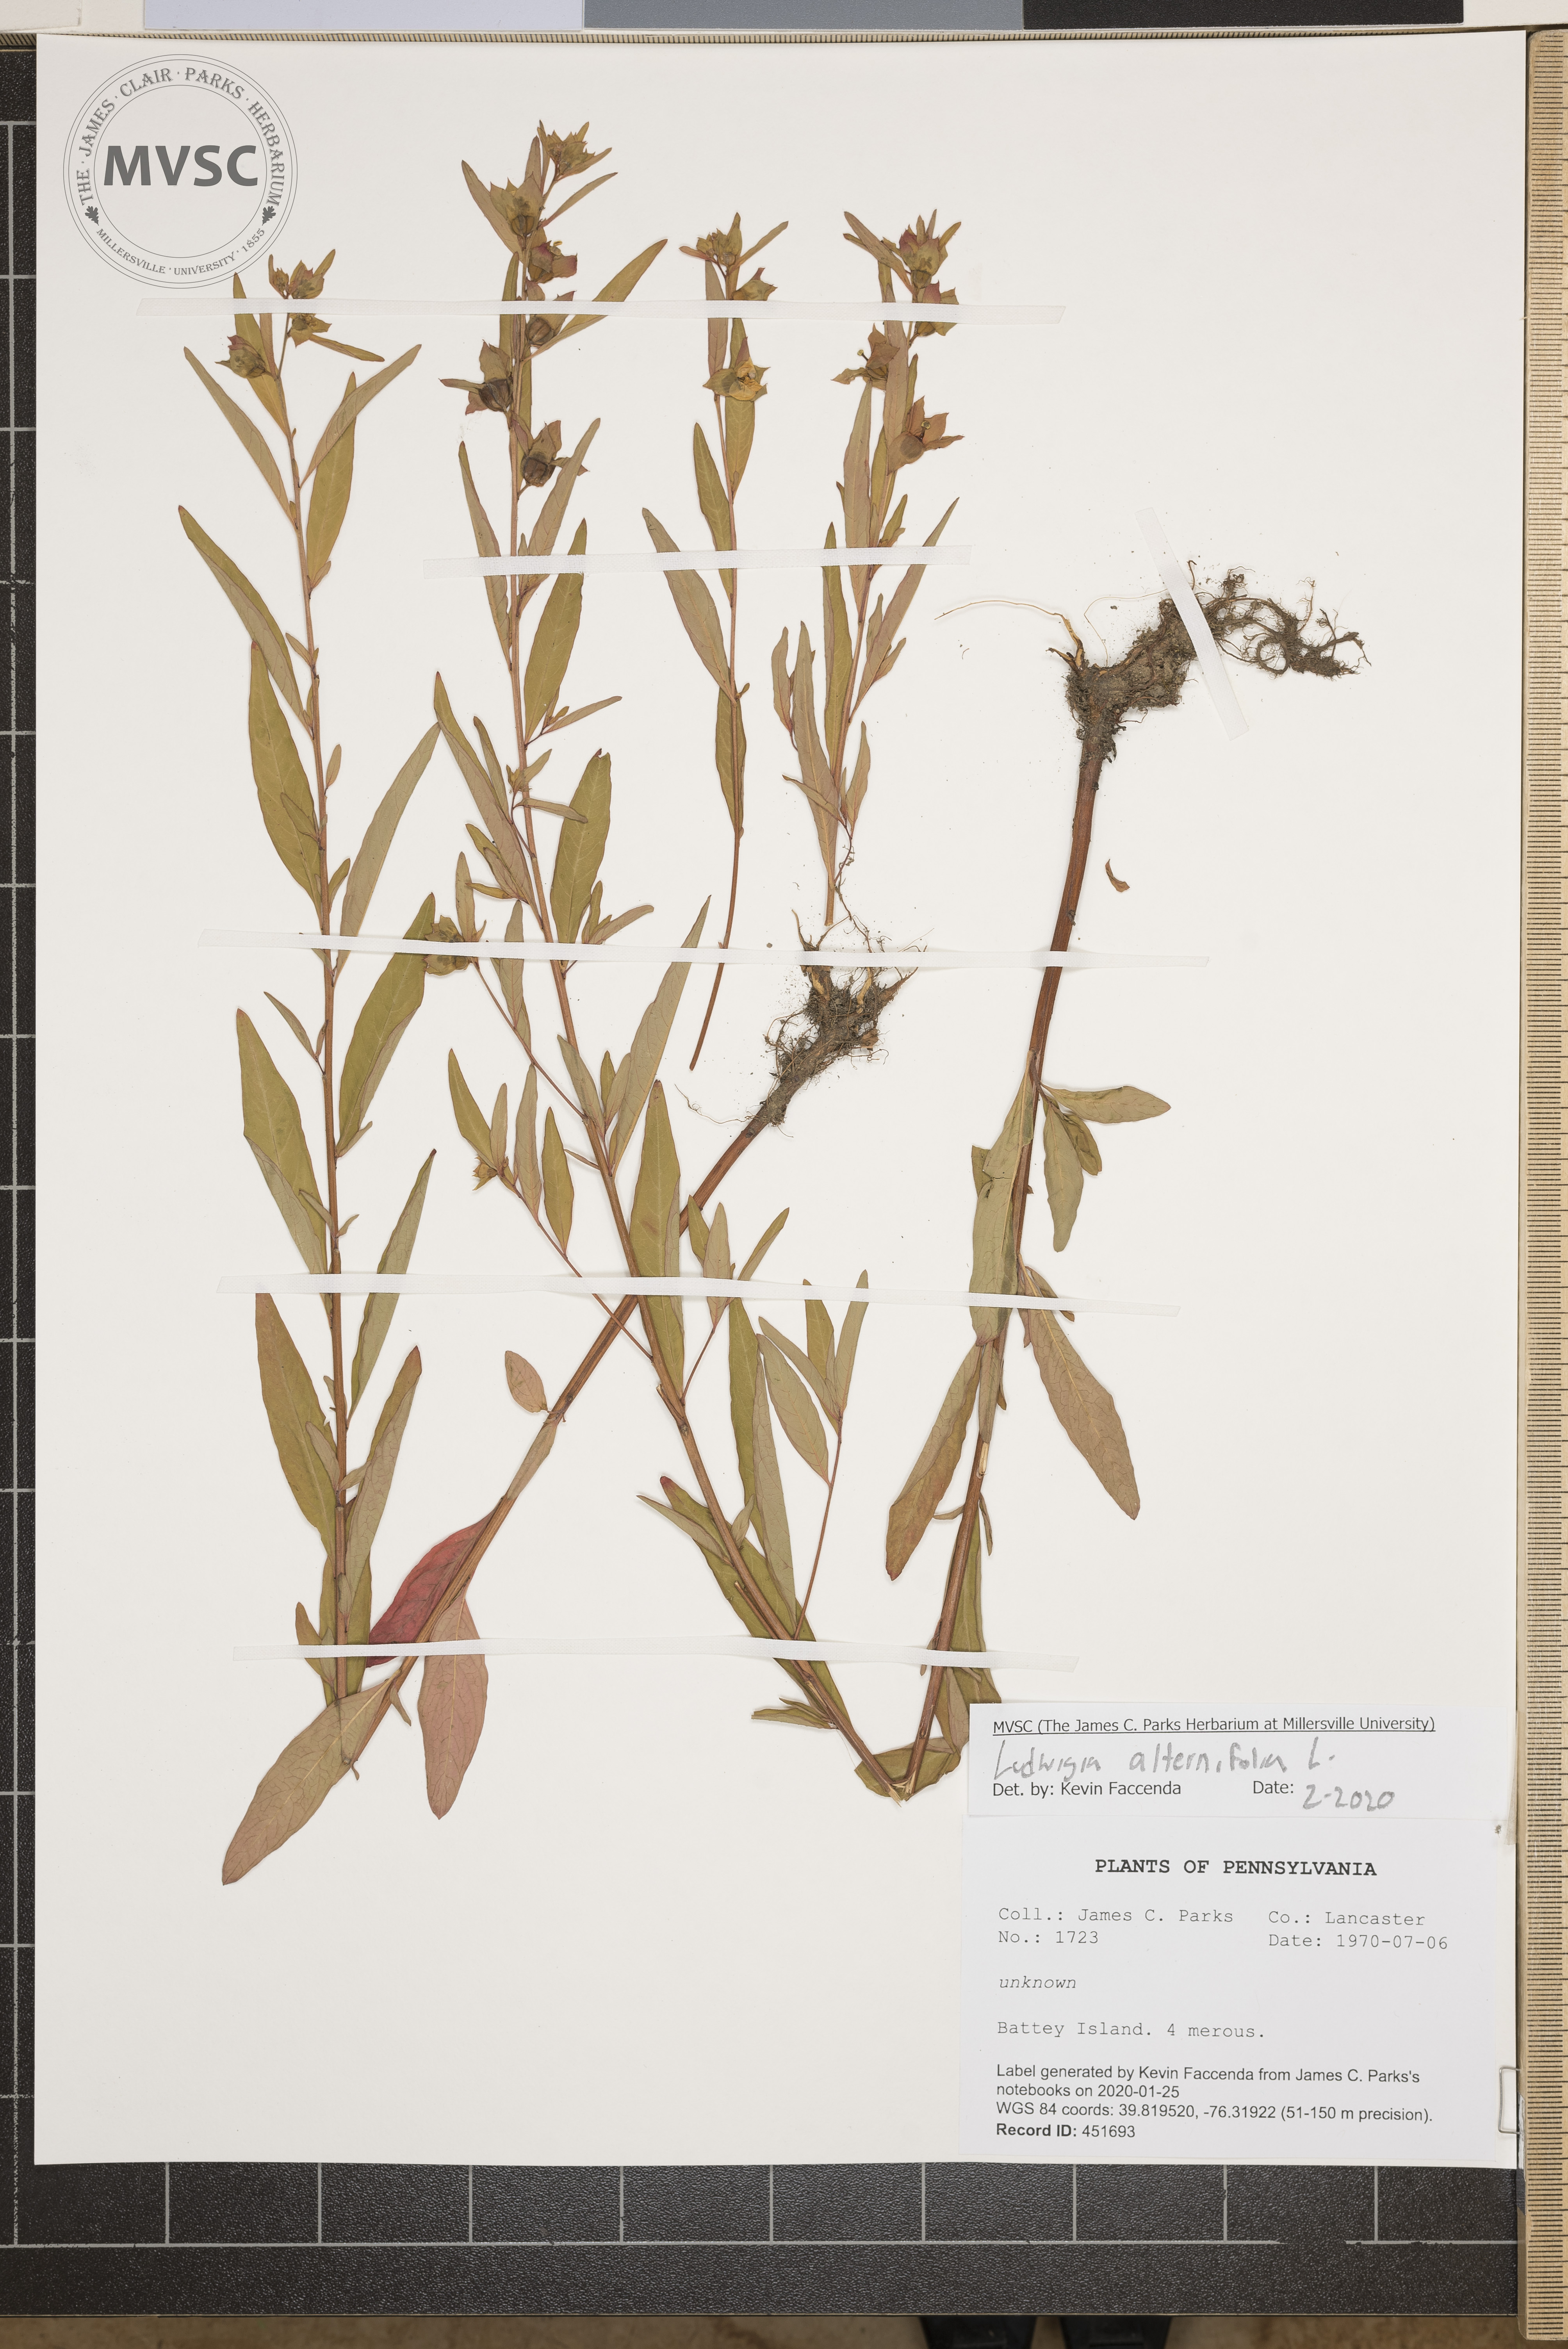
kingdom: Plantae
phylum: Tracheophyta
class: Magnoliopsida
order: Myrtales
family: Onagraceae
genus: Ludwigia
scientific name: Ludwigia alternifolia
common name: Rattlebox
